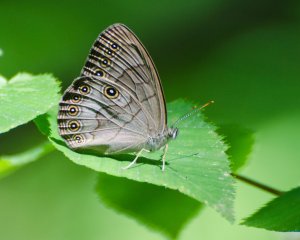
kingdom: Animalia
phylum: Arthropoda
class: Insecta
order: Lepidoptera
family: Nymphalidae
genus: Lethe
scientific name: Lethe eurydice
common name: Appalachian Eyed Brown
